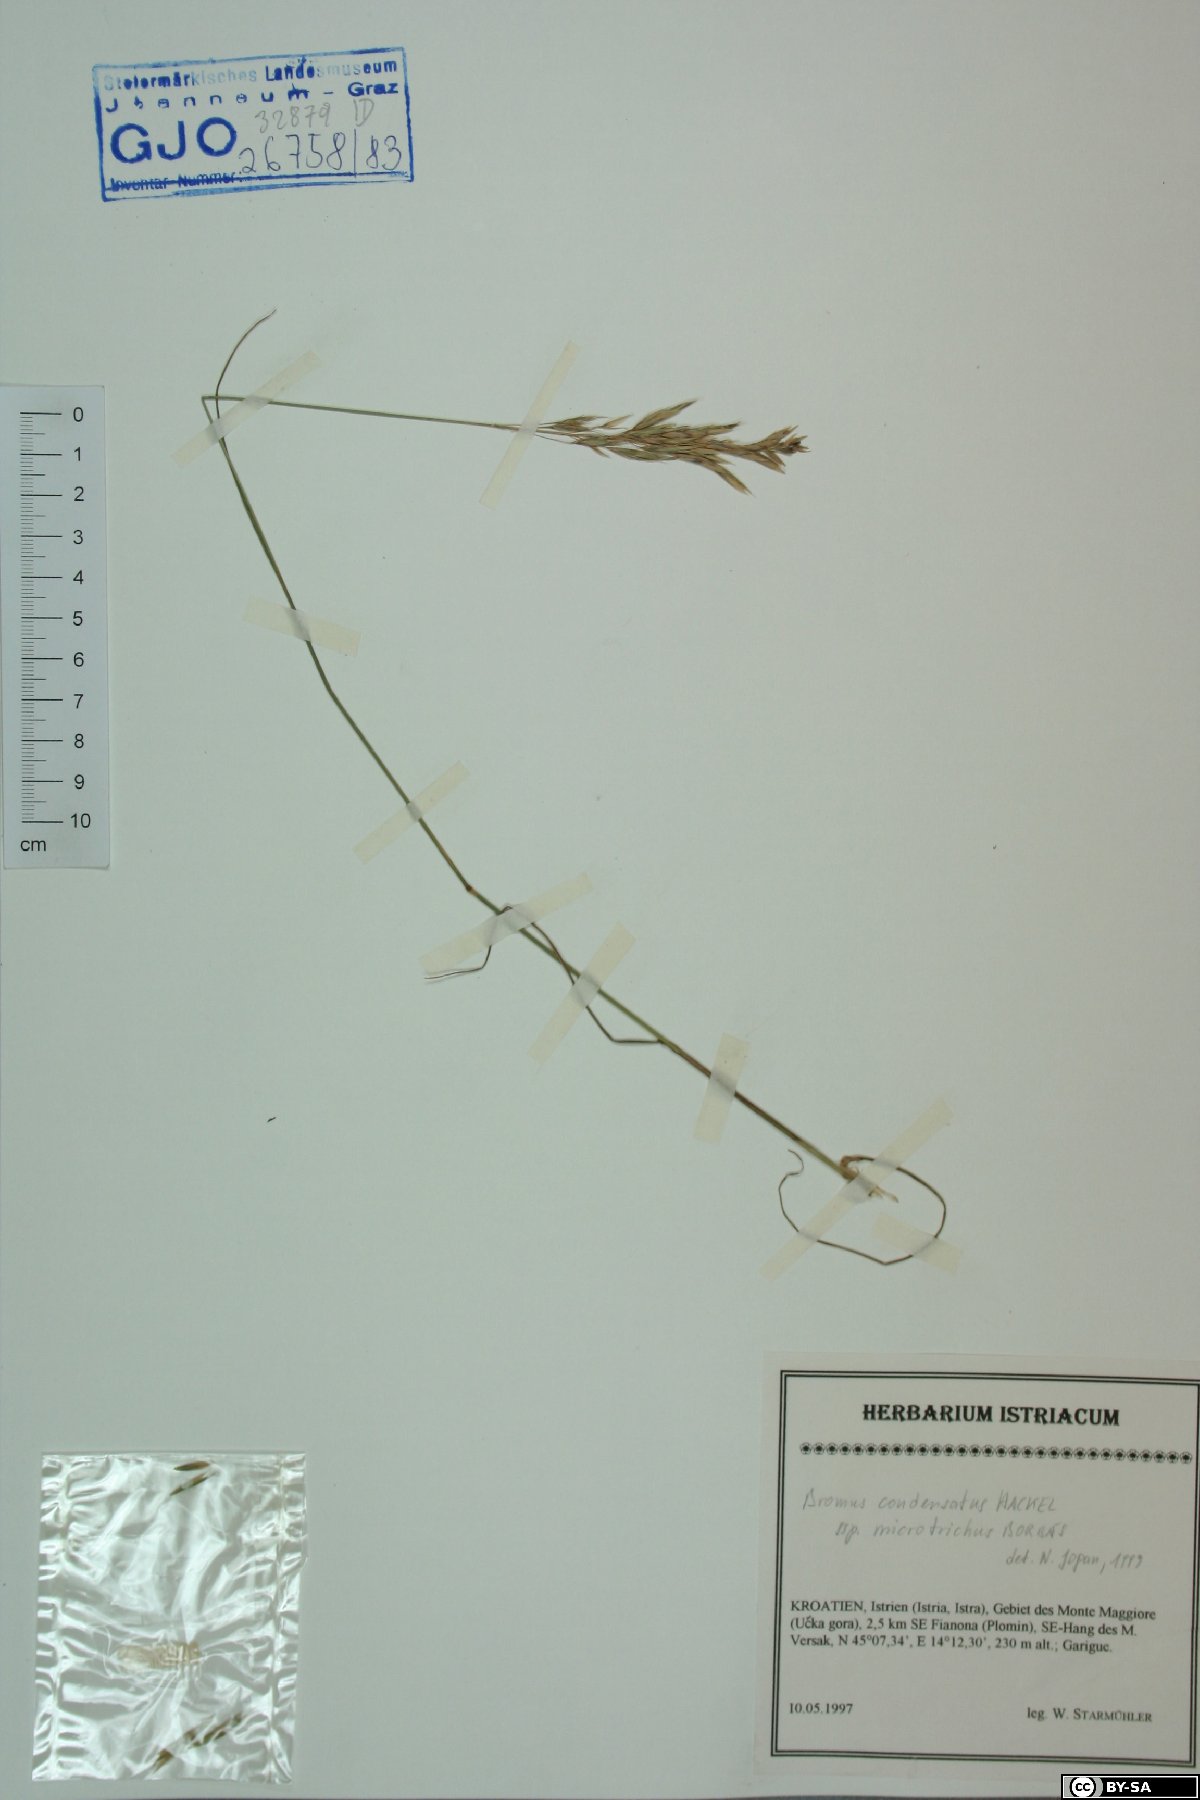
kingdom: Plantae
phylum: Tracheophyta
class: Liliopsida
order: Poales
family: Poaceae
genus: Bromus
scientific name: Bromus condensatus
